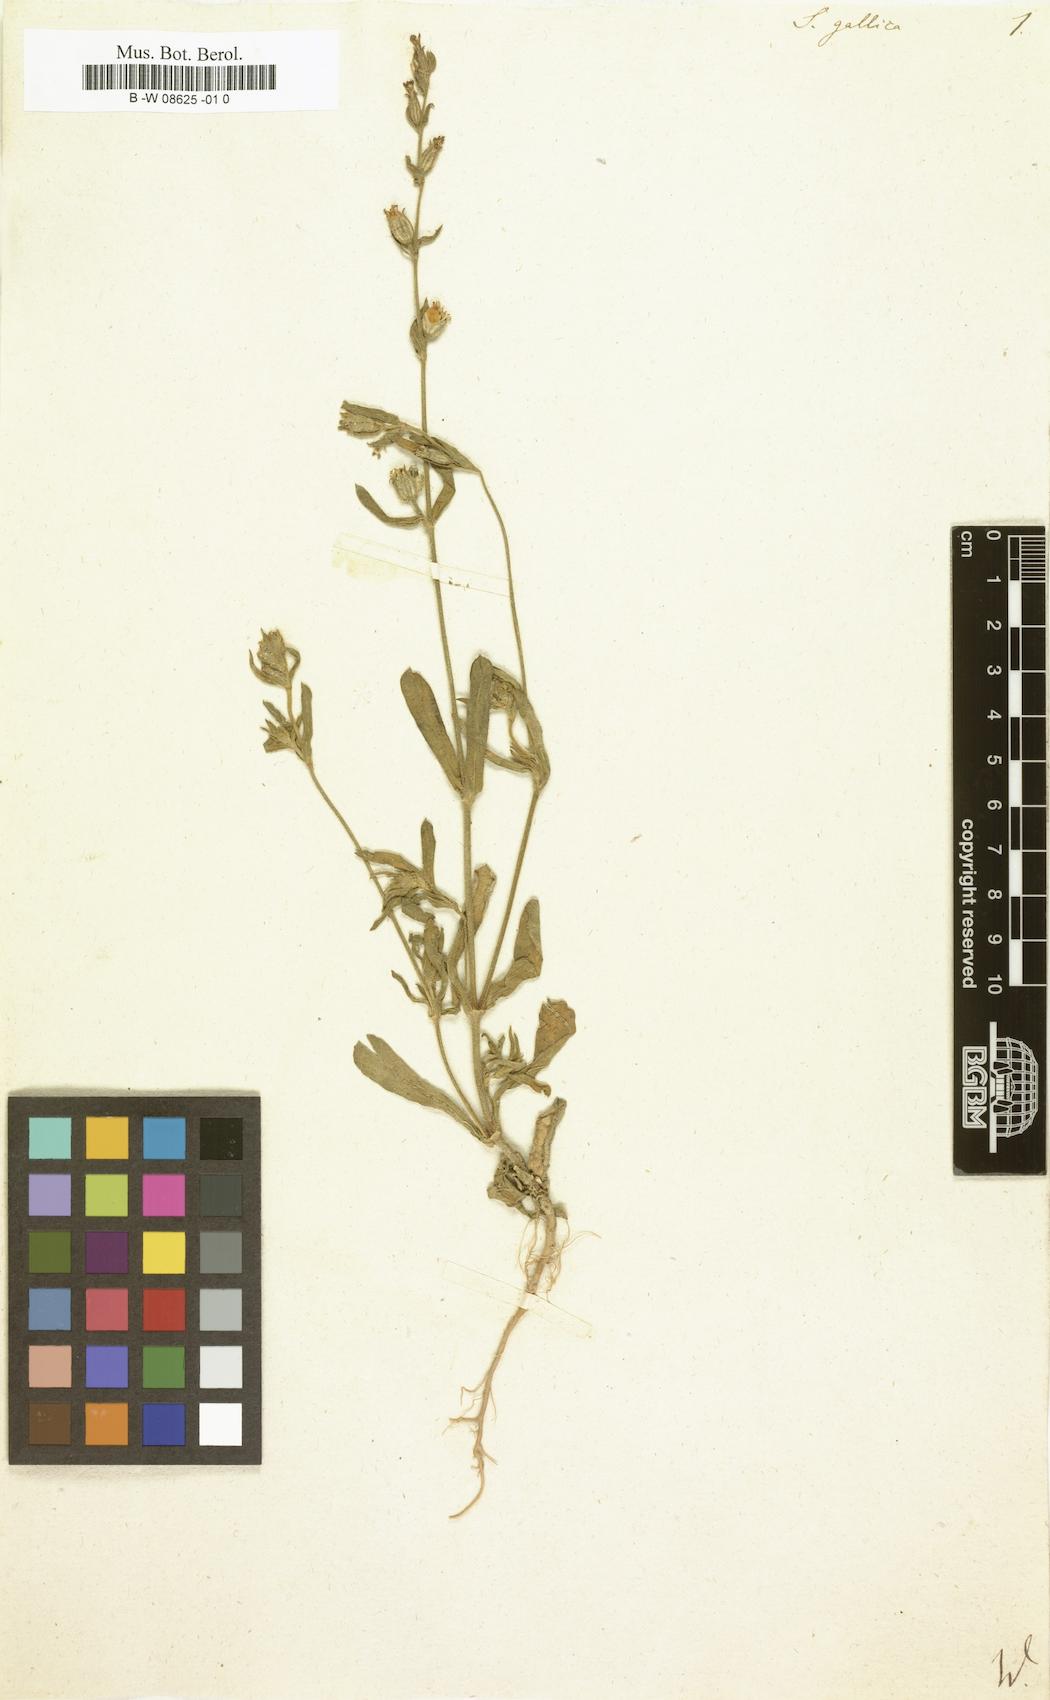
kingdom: Plantae
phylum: Tracheophyta
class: Magnoliopsida
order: Caryophyllales
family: Caryophyllaceae
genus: Silene
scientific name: Silene gallica
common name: Small-flowered catchfly
